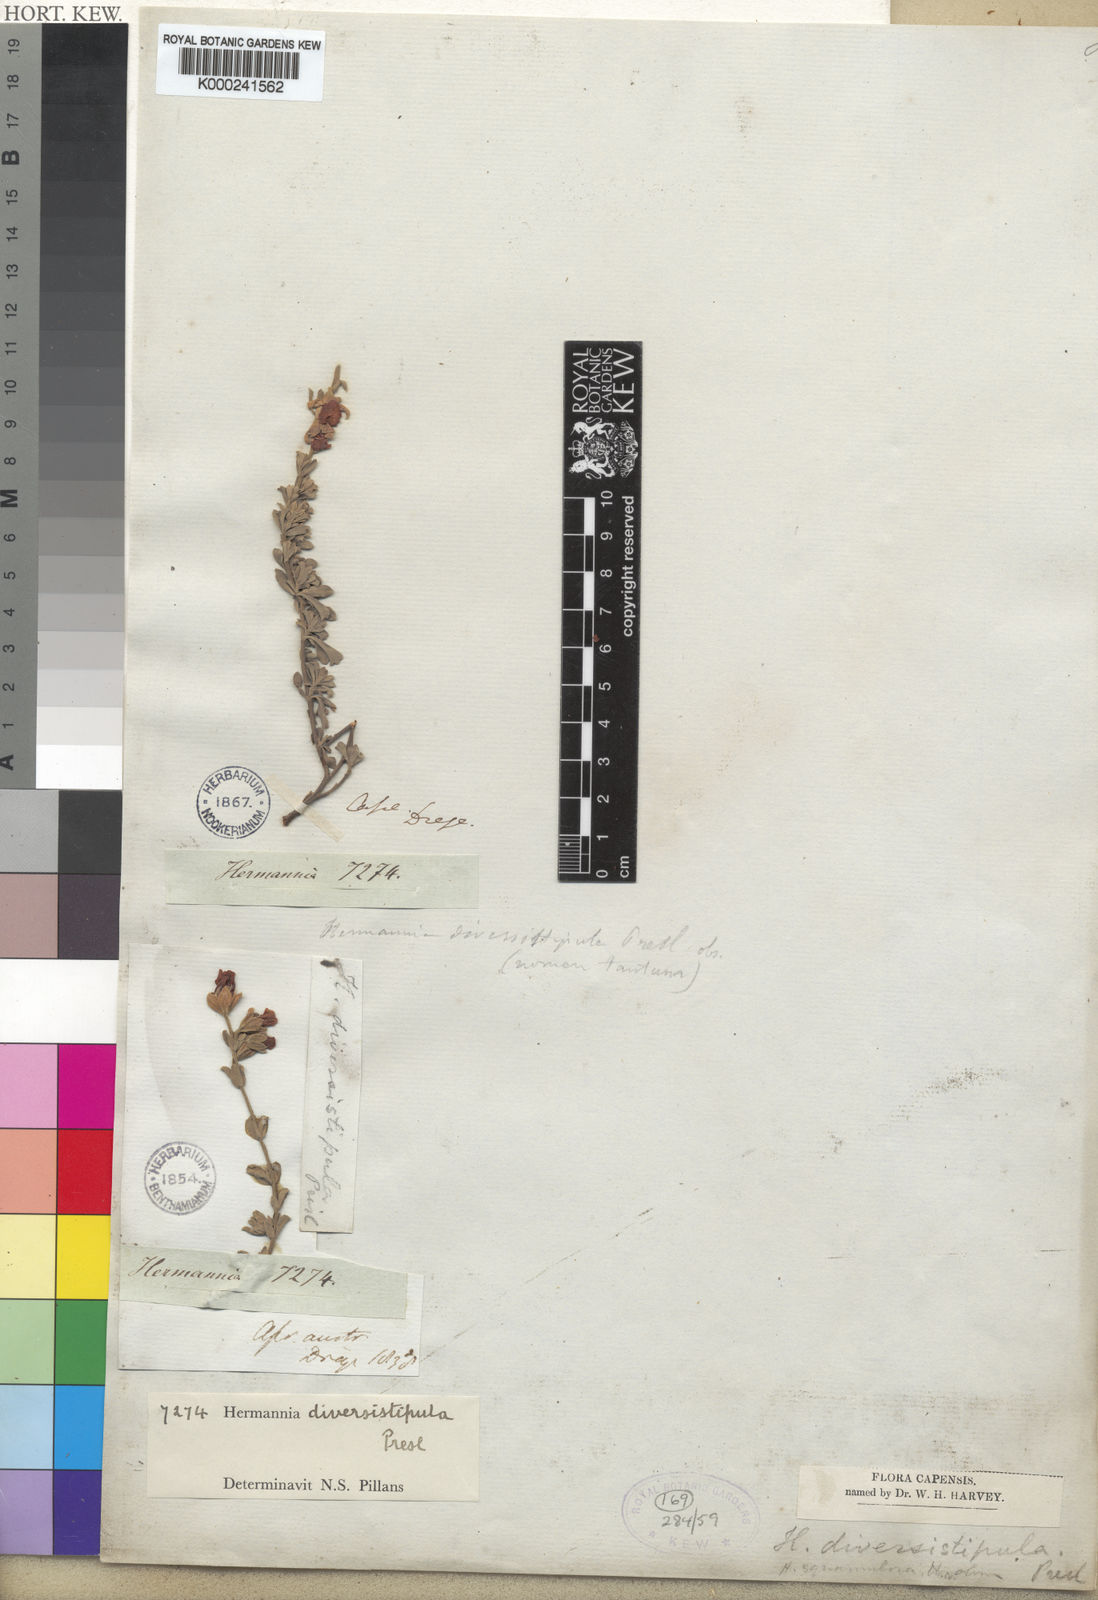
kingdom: Plantae
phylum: Tracheophyta
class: Magnoliopsida
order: Malvales
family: Malvaceae
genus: Hermannia
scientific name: Hermannia
